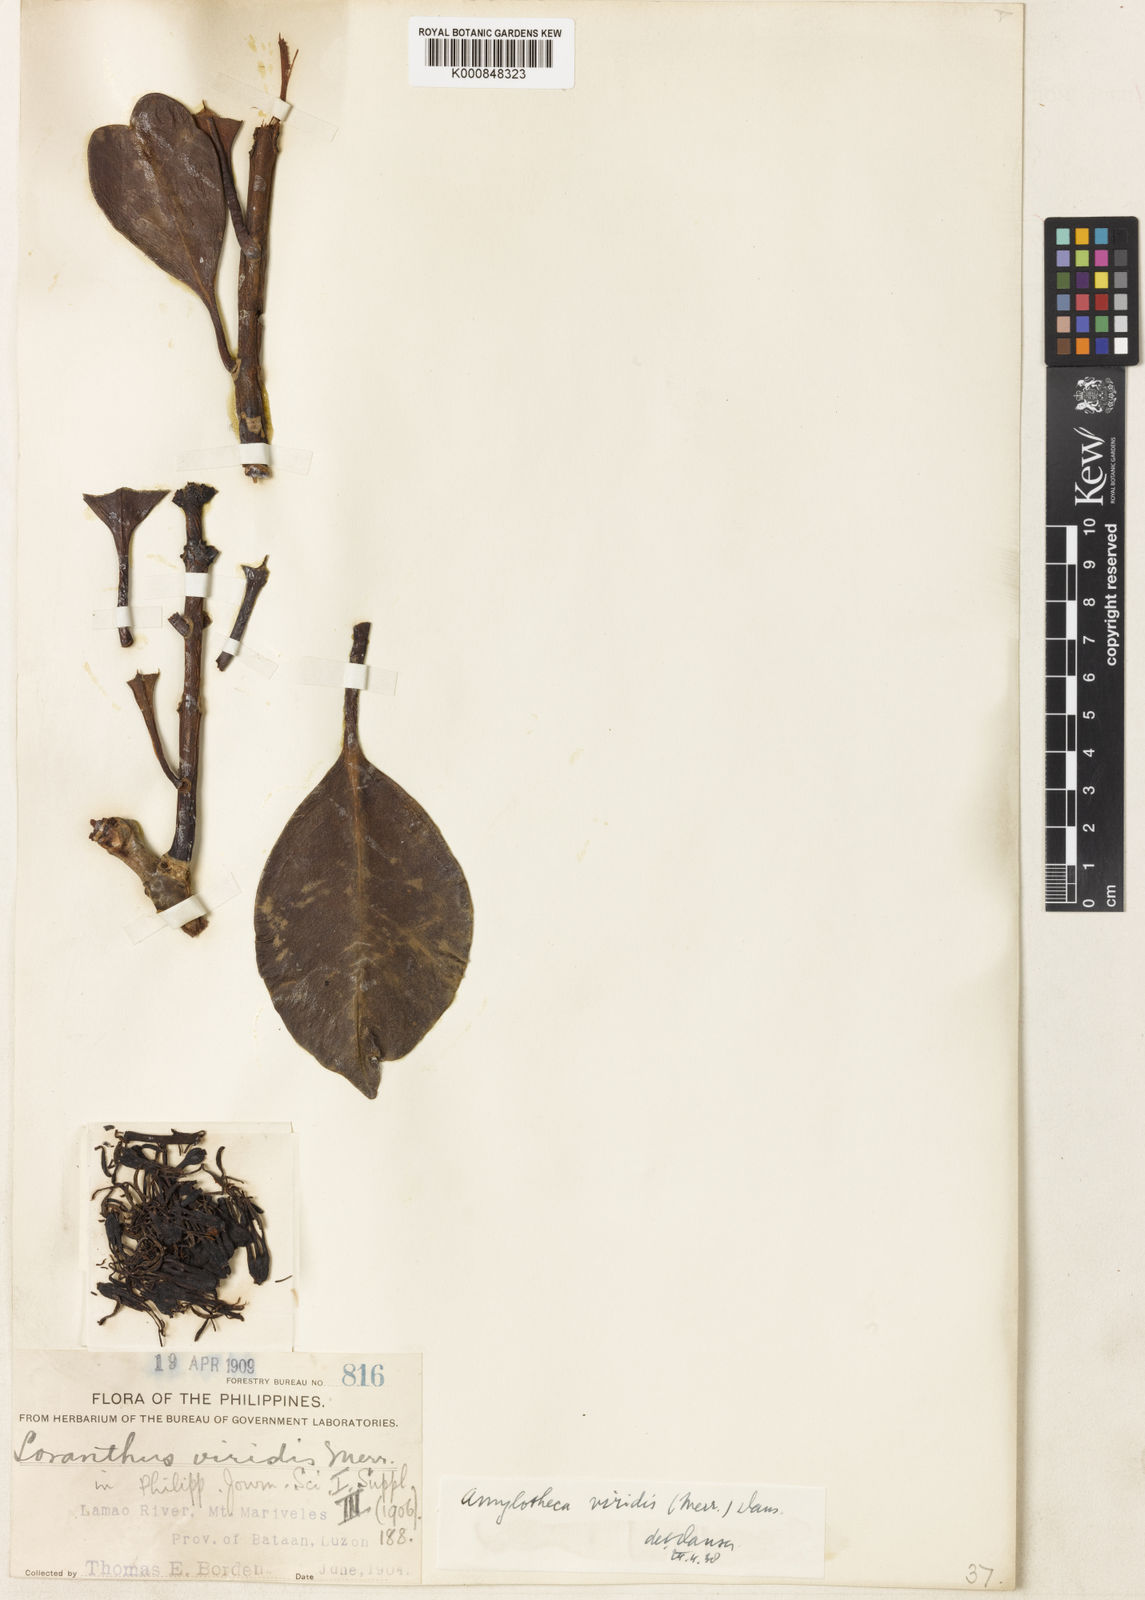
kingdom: Plantae
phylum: Tracheophyta
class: Magnoliopsida
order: Santalales
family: Loranthaceae
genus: Decaisnina
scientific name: Decaisnina viridis
